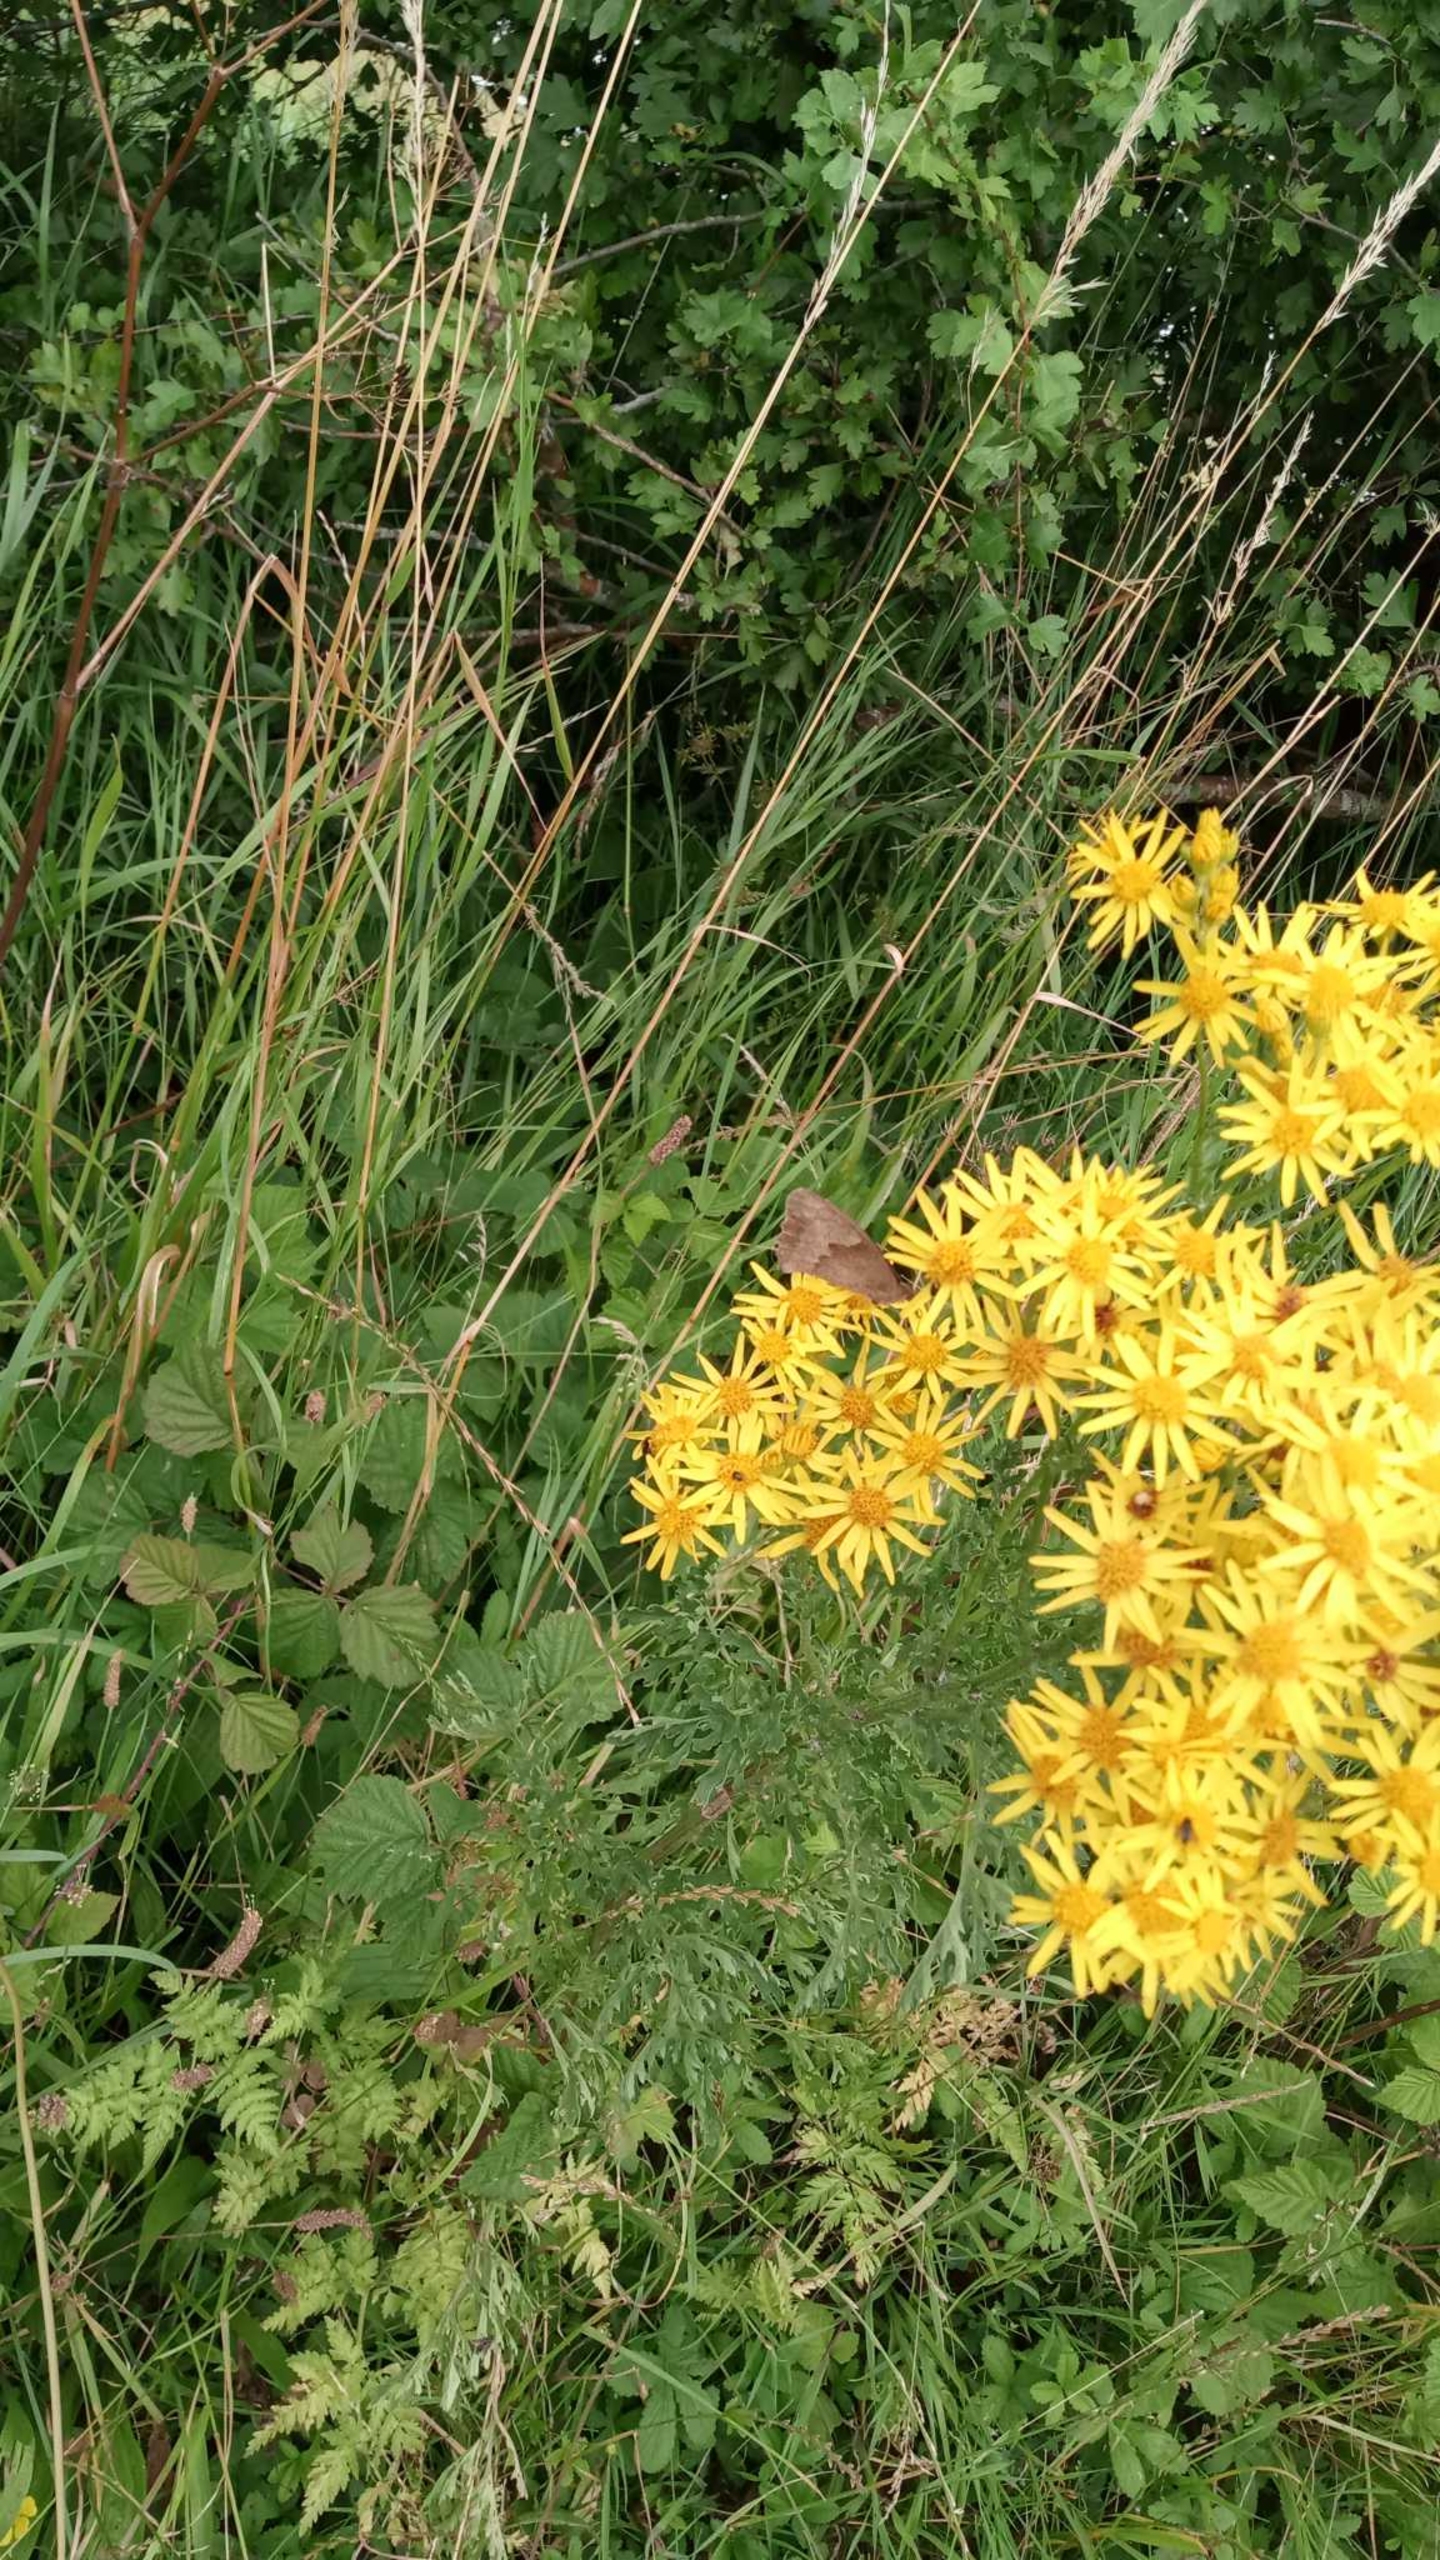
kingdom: Animalia
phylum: Arthropoda
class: Insecta
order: Lepidoptera
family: Nymphalidae
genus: Maniola
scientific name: Maniola jurtina
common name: Græsrandøje
